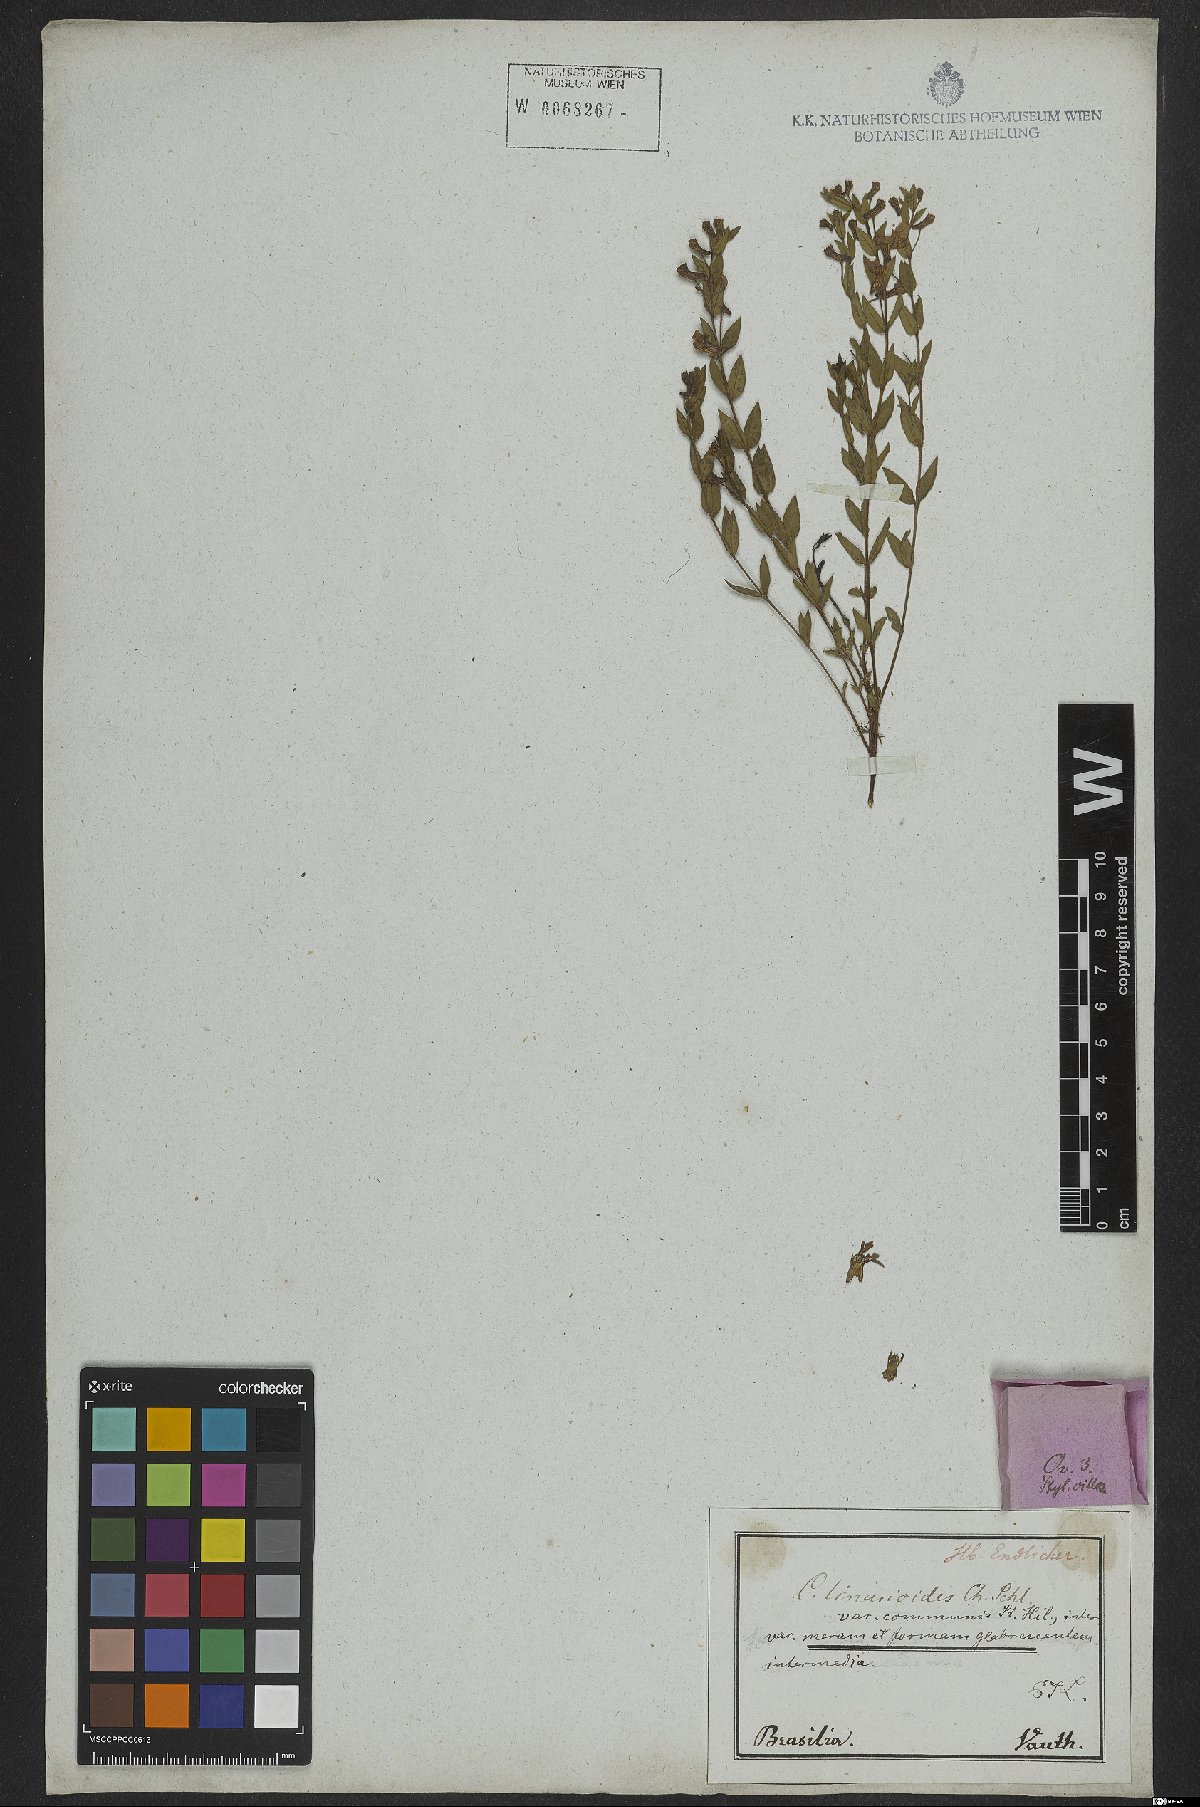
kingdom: Plantae
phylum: Tracheophyta
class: Magnoliopsida
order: Myrtales
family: Lythraceae
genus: Cuphea
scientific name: Cuphea linarioides
